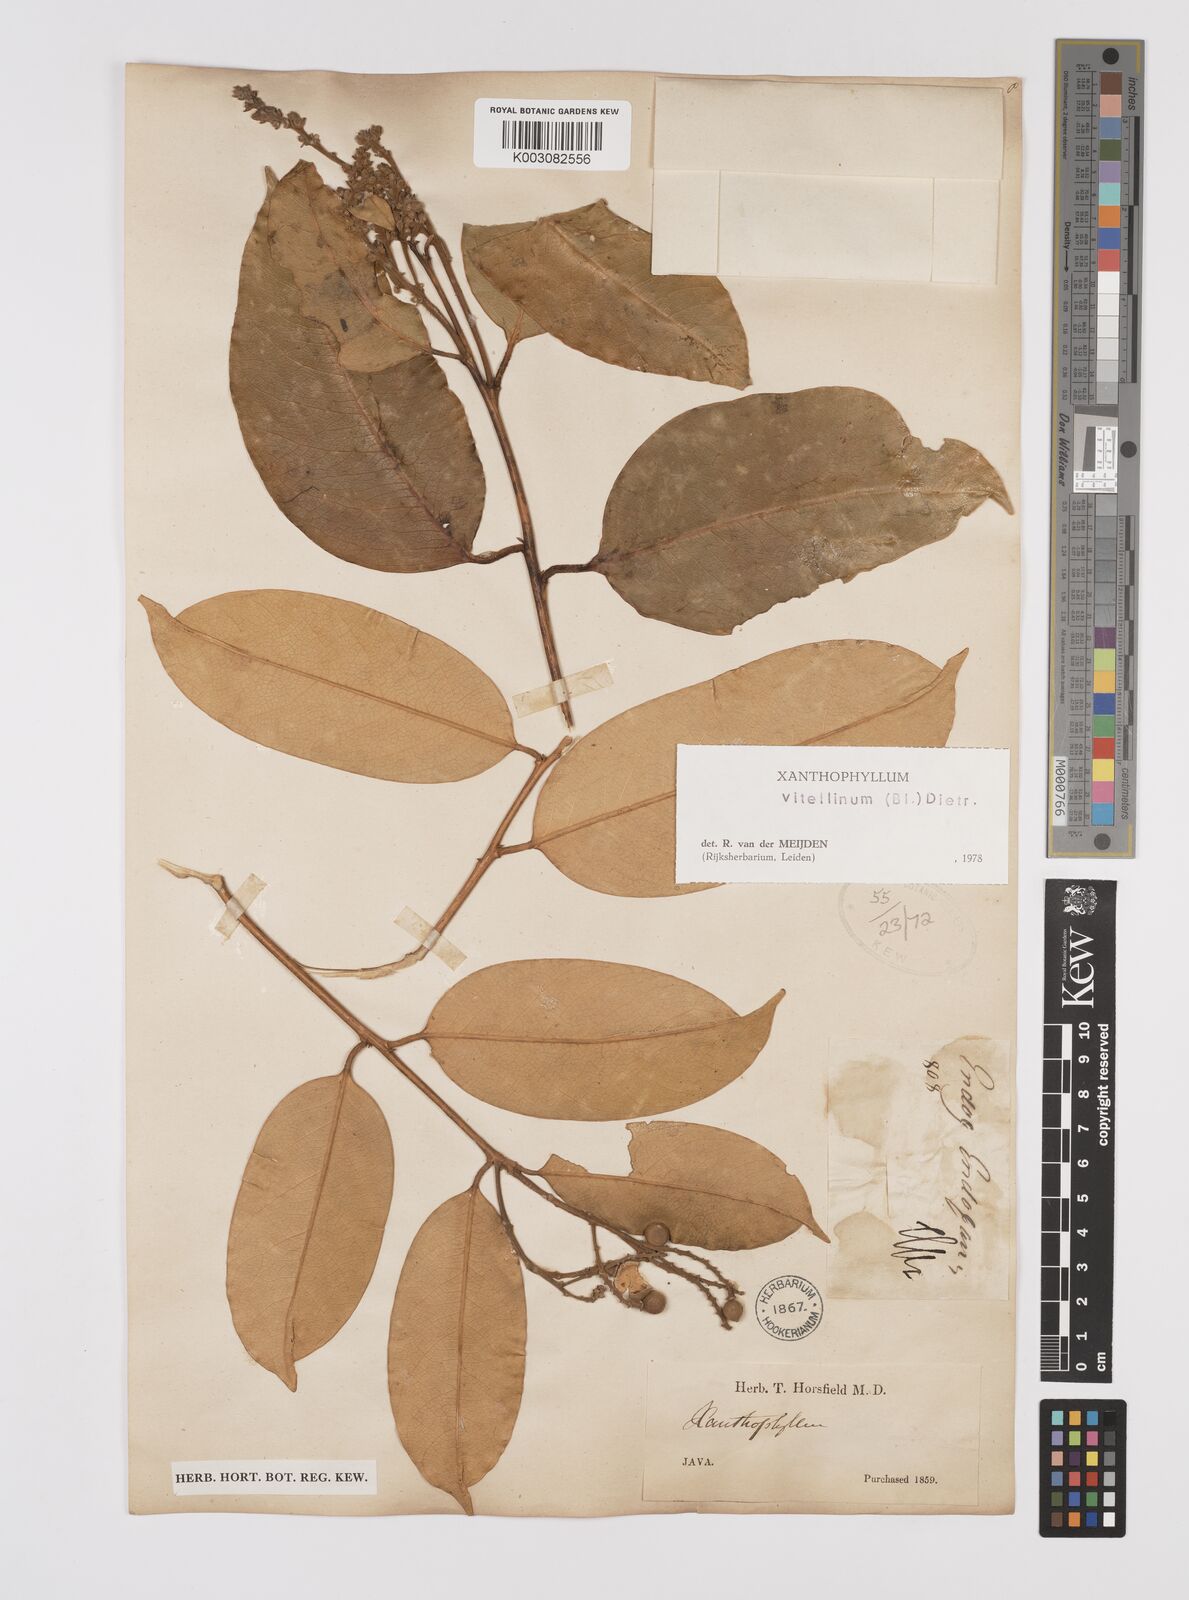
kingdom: Plantae
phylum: Tracheophyta
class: Magnoliopsida
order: Fabales
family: Polygalaceae
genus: Xanthophyllum
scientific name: Xanthophyllum vitellinum
